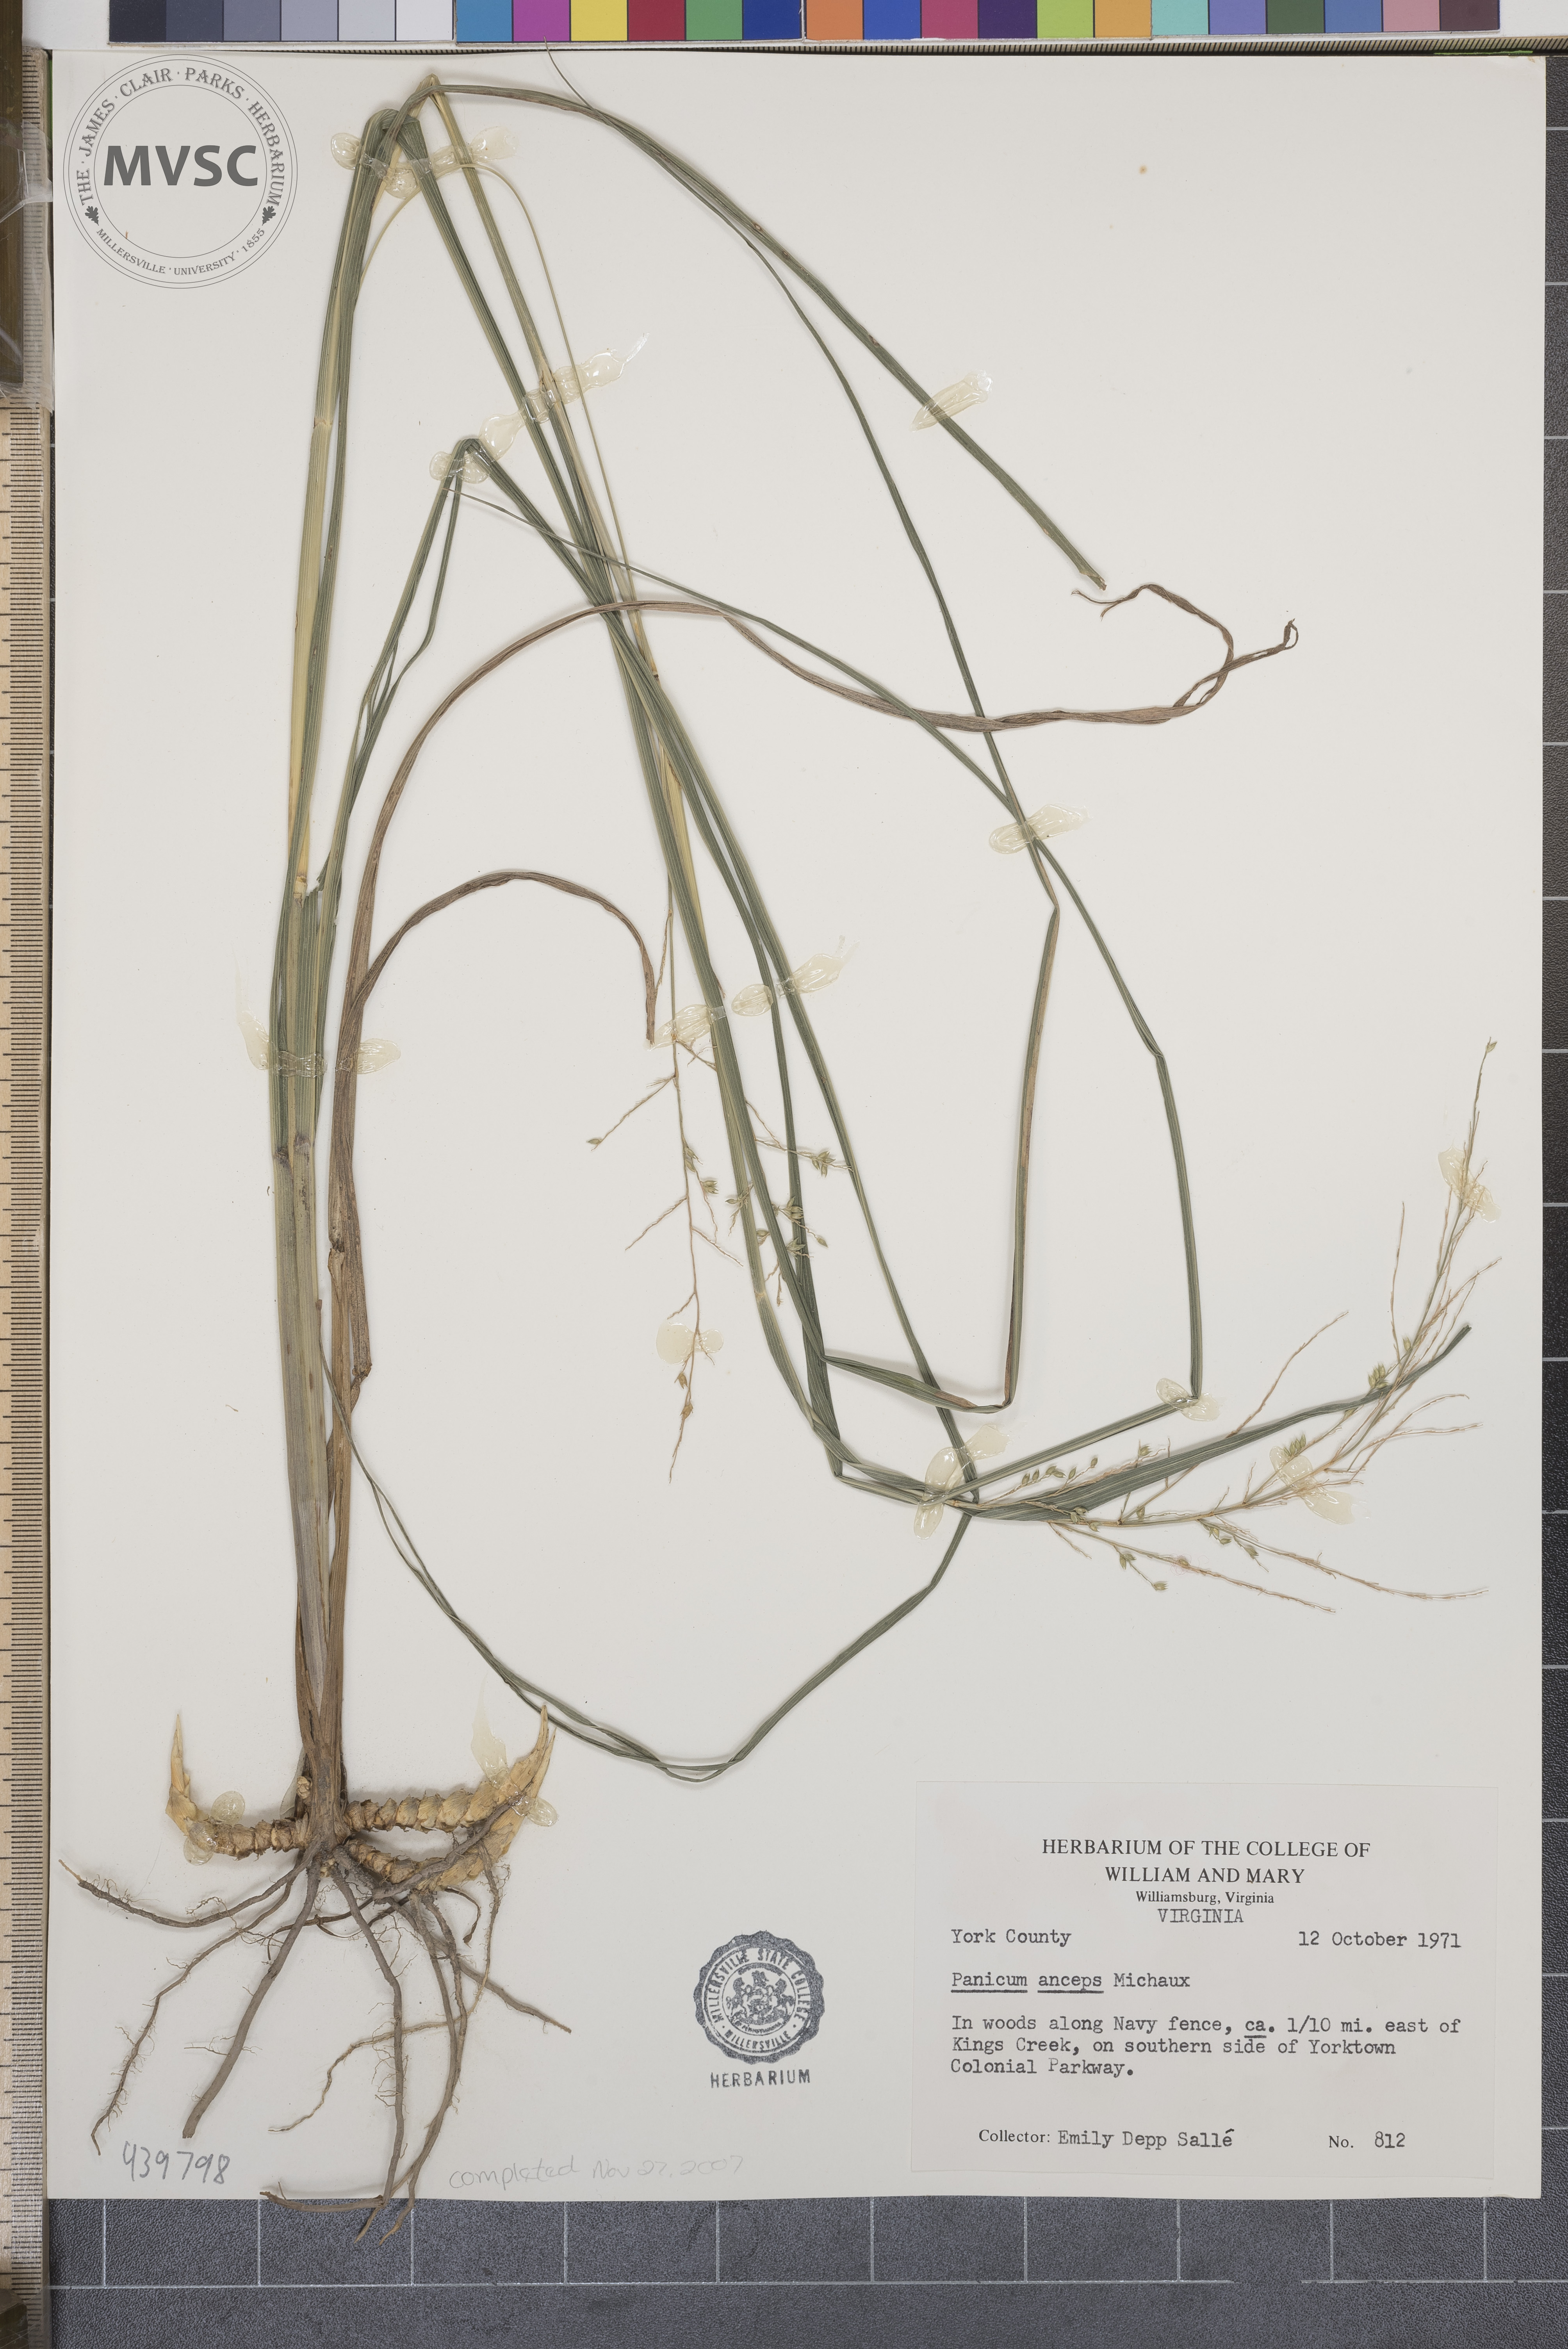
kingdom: Plantae
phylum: Tracheophyta
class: Liliopsida
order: Poales
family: Poaceae
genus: Coleataenia
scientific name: Coleataenia anceps
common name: Beaked panic grass
